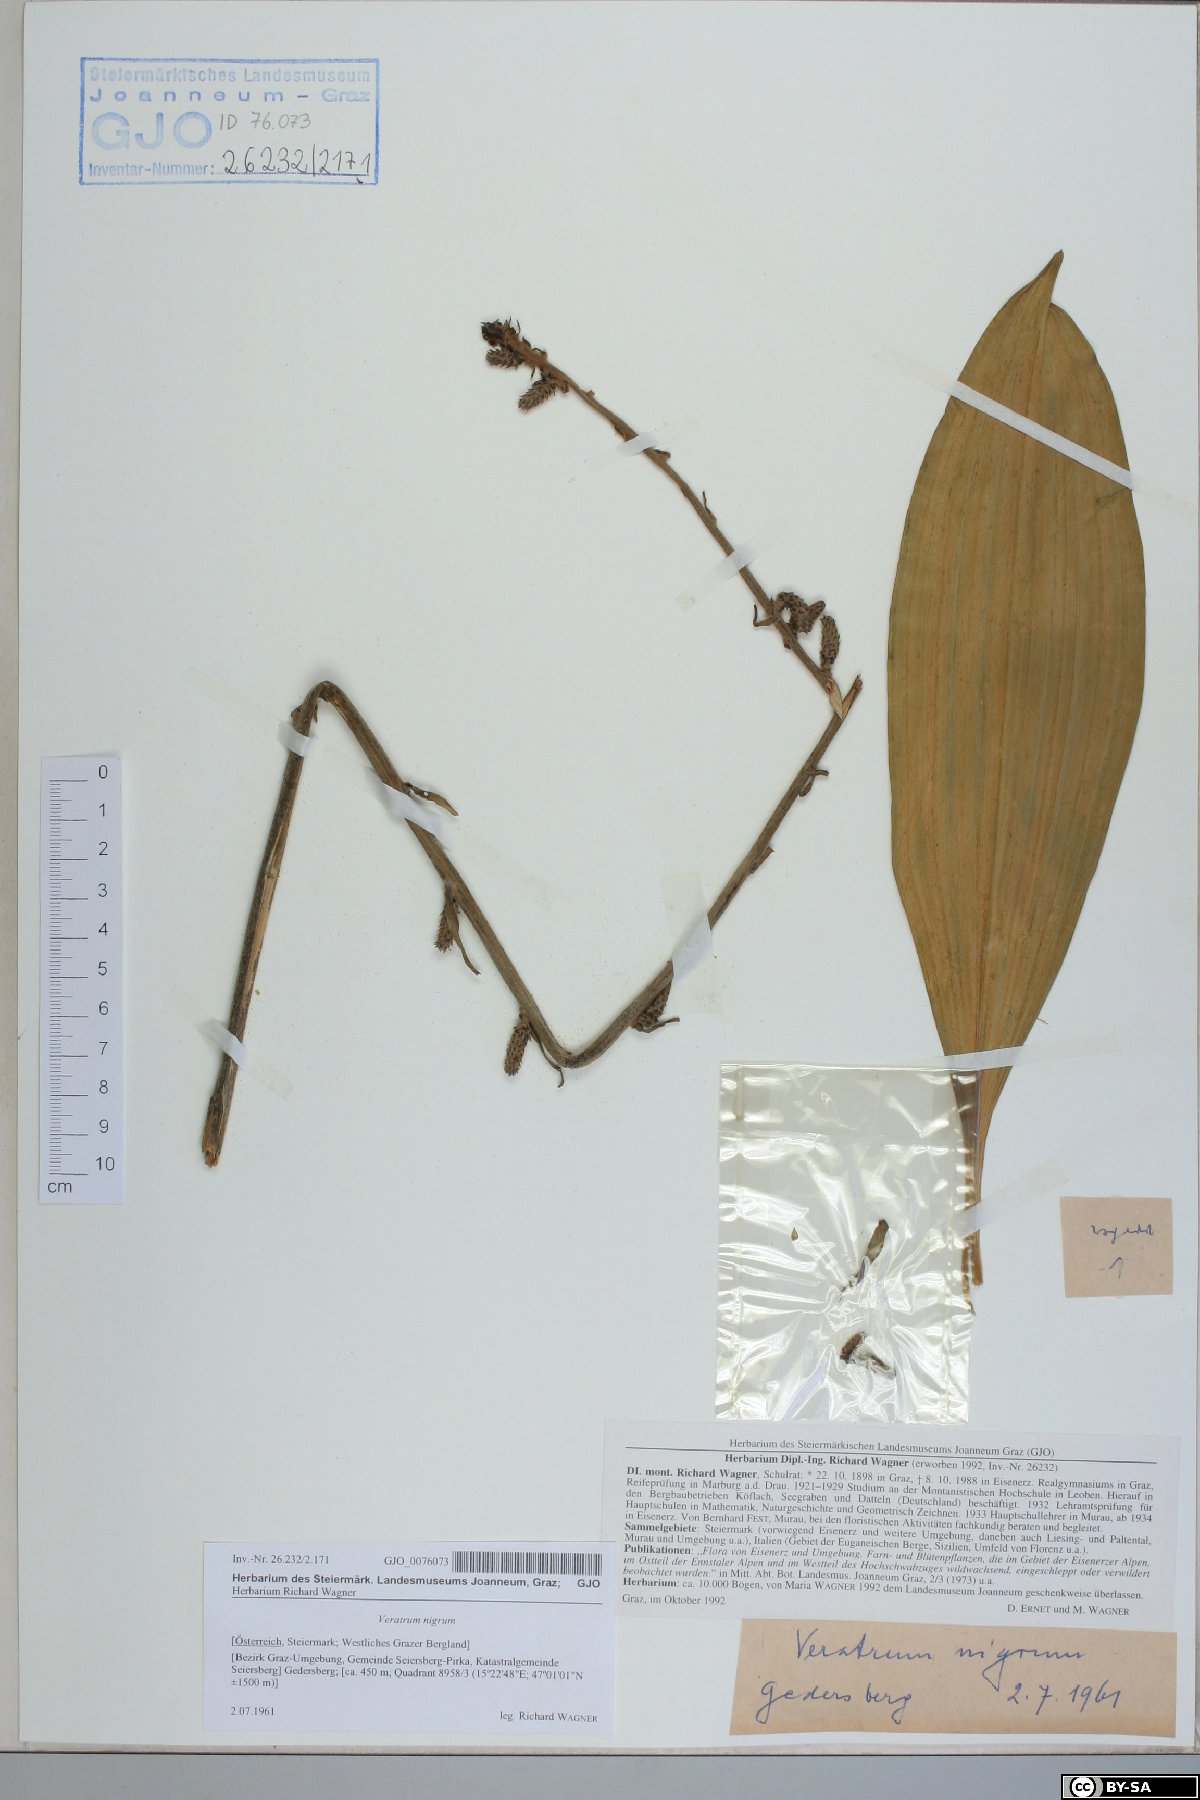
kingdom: Plantae
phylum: Tracheophyta
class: Liliopsida
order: Liliales
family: Melanthiaceae
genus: Veratrum
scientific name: Veratrum nigrum
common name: Black veratrum
